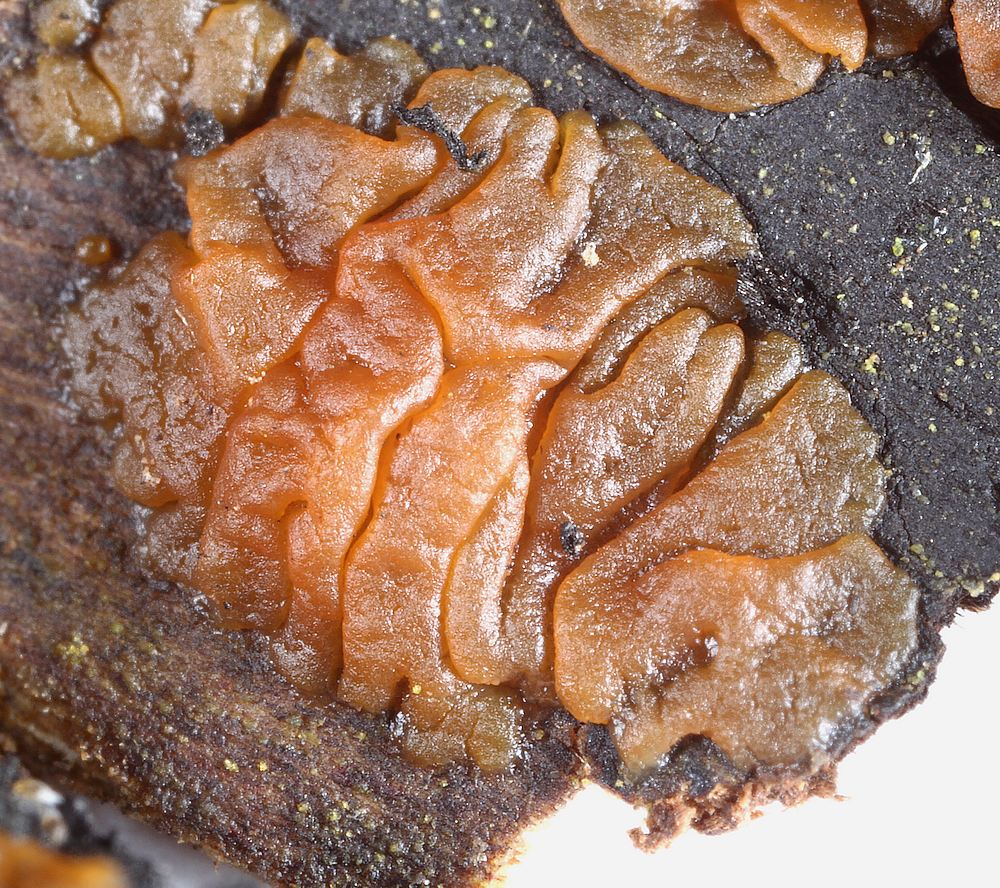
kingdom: Fungi
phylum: Basidiomycota
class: Dacrymycetes
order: Dacrymycetales
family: Dacrymycetaceae
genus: Dacrymyces
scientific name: Dacrymyces
